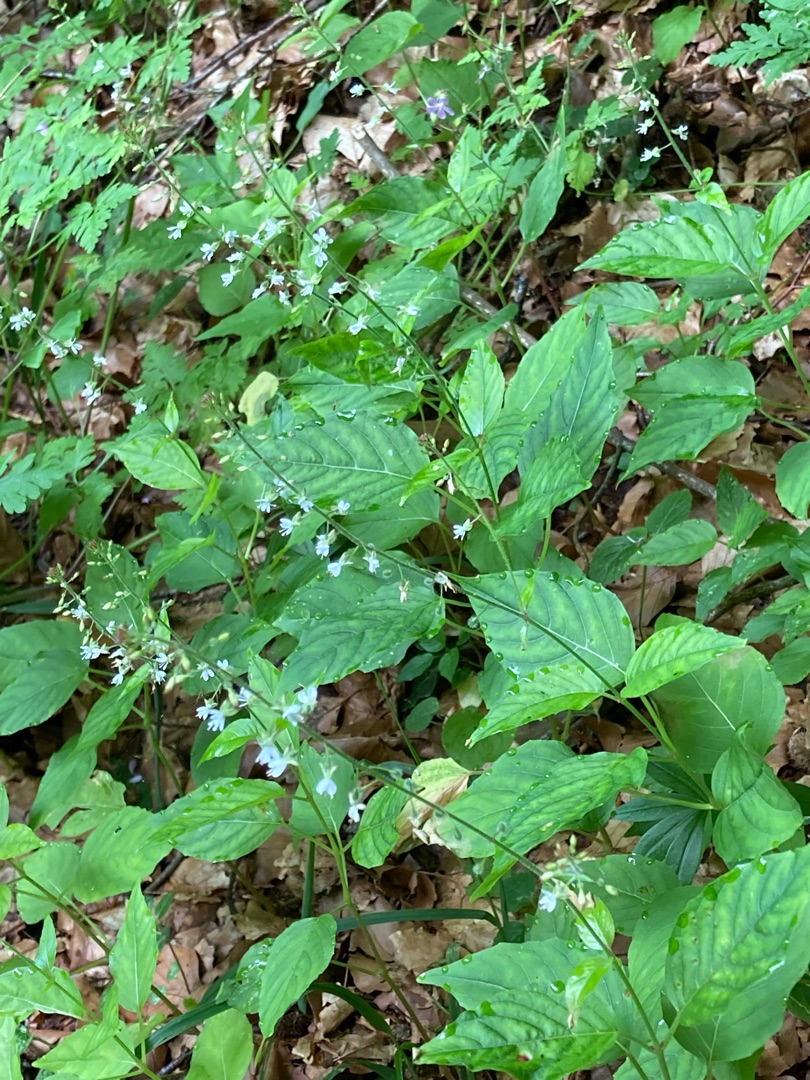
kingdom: Plantae
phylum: Tracheophyta
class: Magnoliopsida
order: Myrtales
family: Onagraceae
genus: Circaea
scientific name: Circaea lutetiana
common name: Dunet steffensurt
